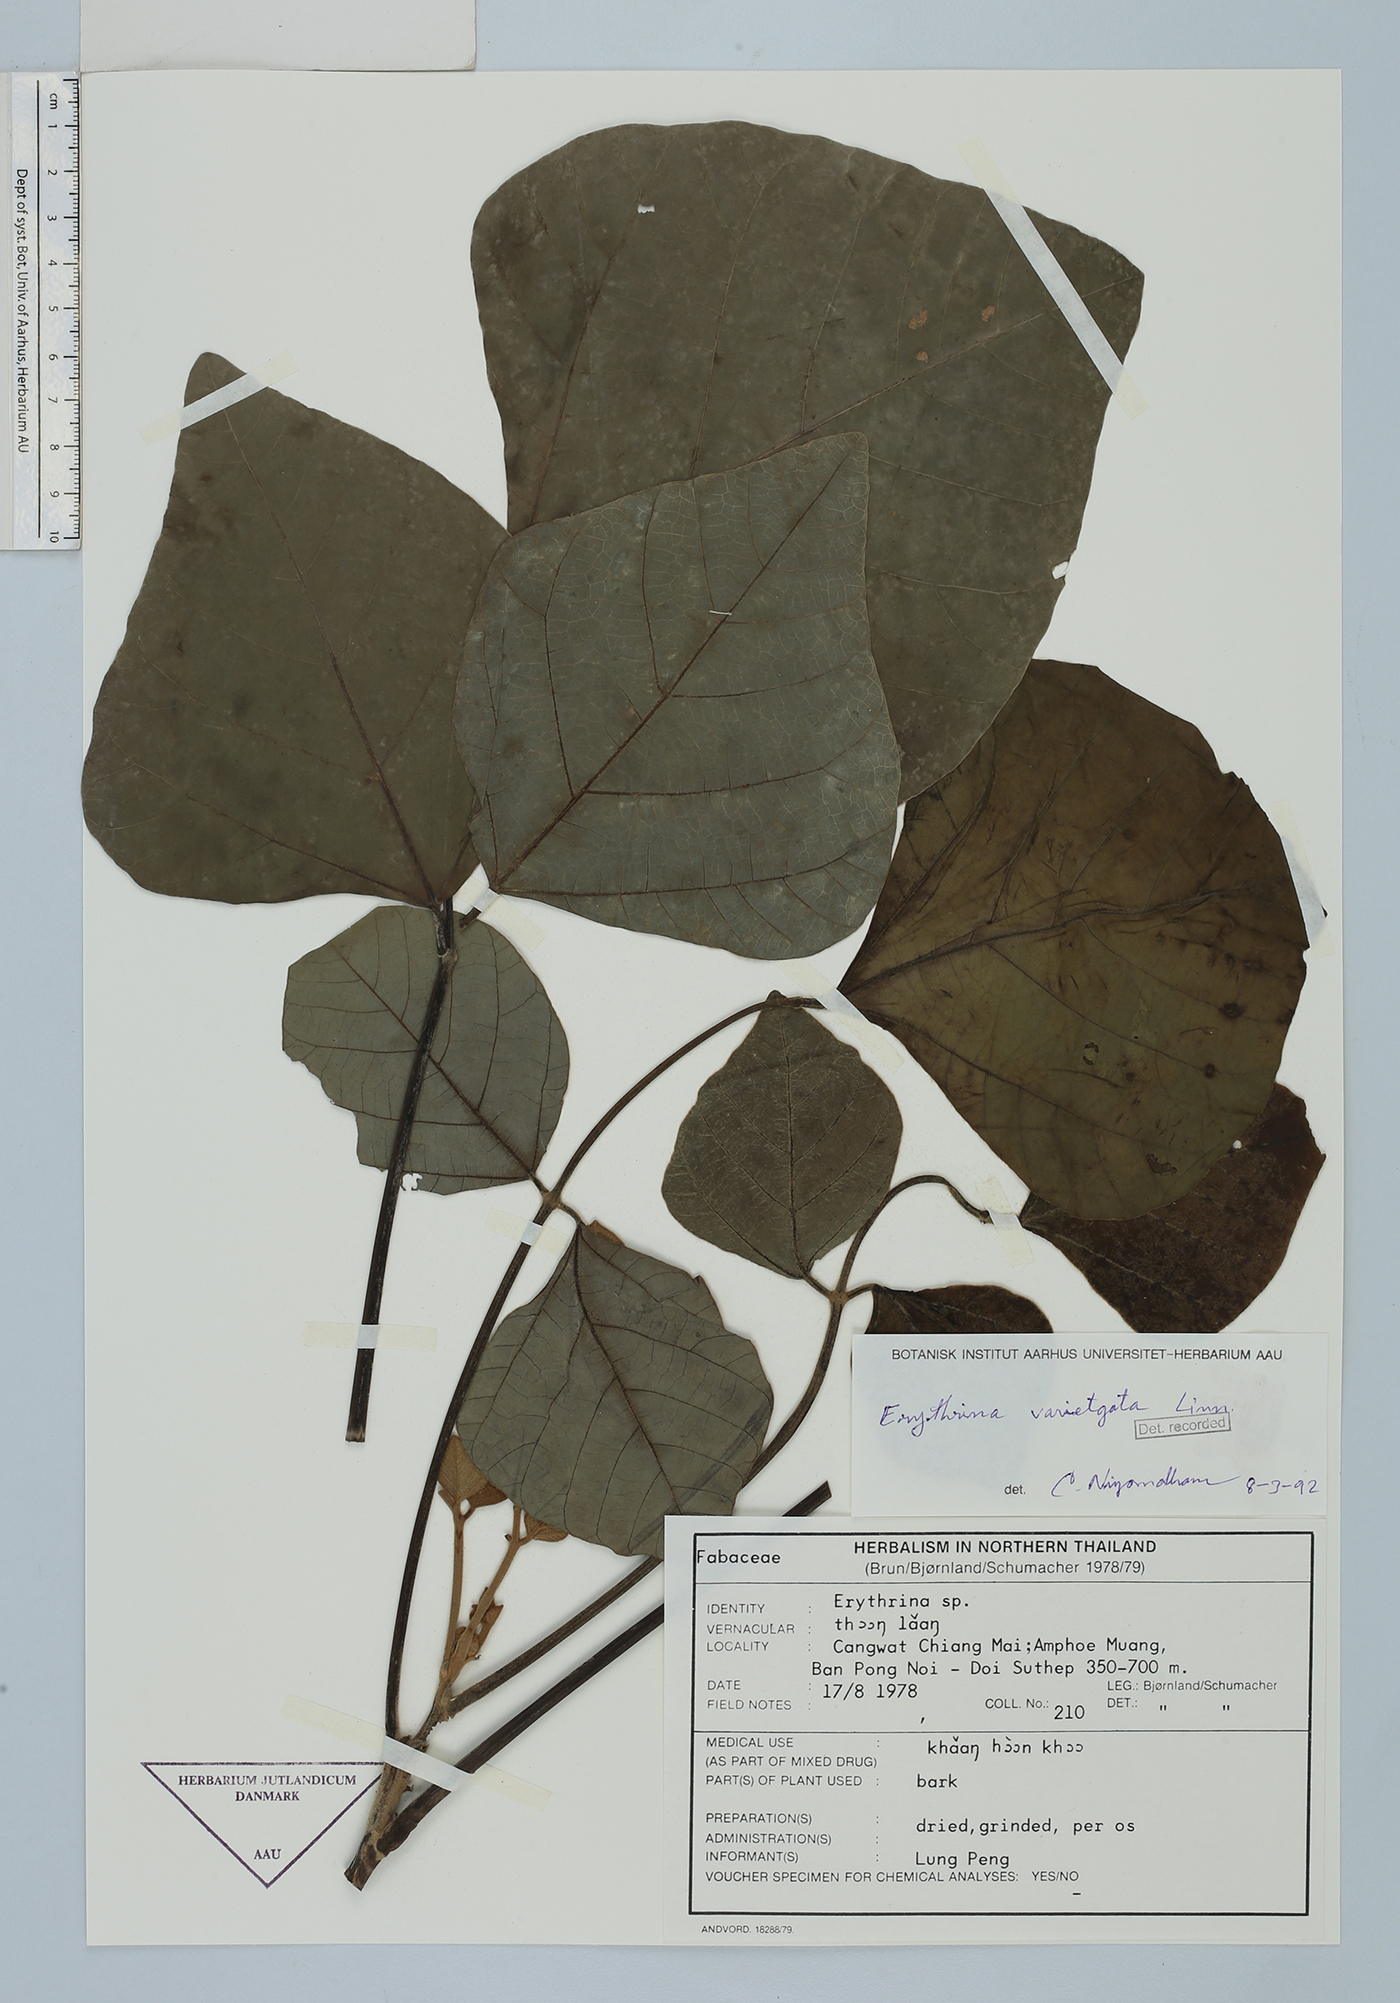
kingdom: Plantae
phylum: Tracheophyta
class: Magnoliopsida
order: Fabales
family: Fabaceae
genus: Erythrina
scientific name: Erythrina variegata
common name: Indian coral tree
